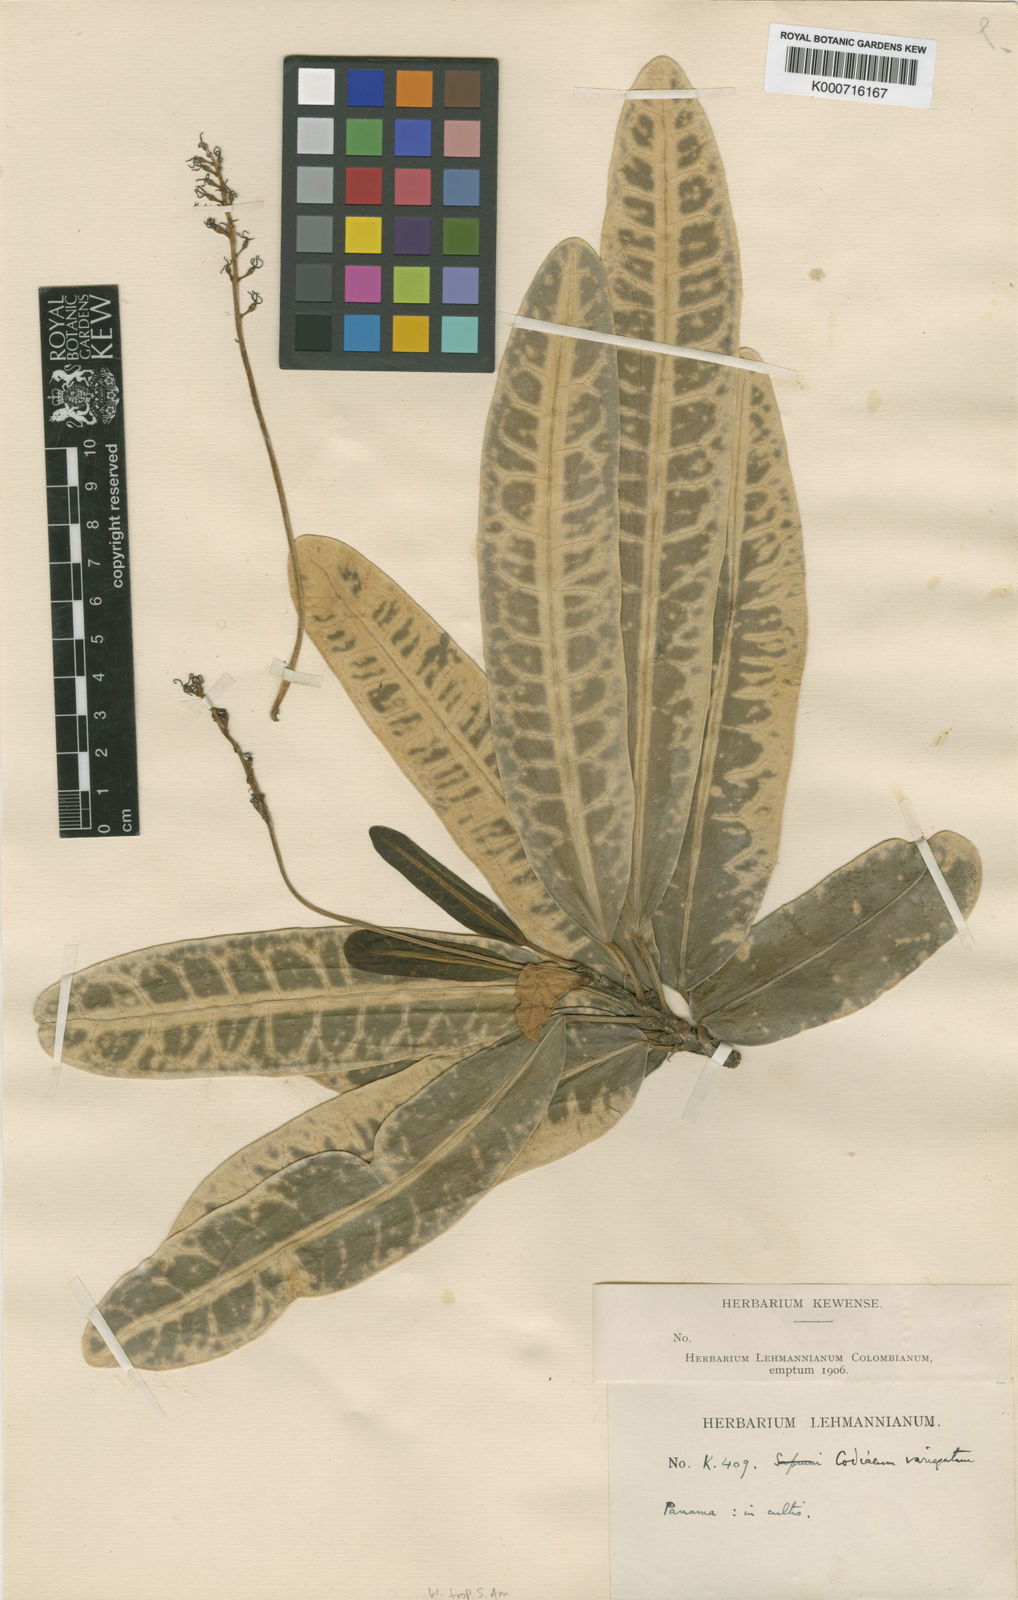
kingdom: Plantae
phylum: Tracheophyta
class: Magnoliopsida
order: Malpighiales
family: Euphorbiaceae
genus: Codiaeum
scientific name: Codiaeum variegatum
